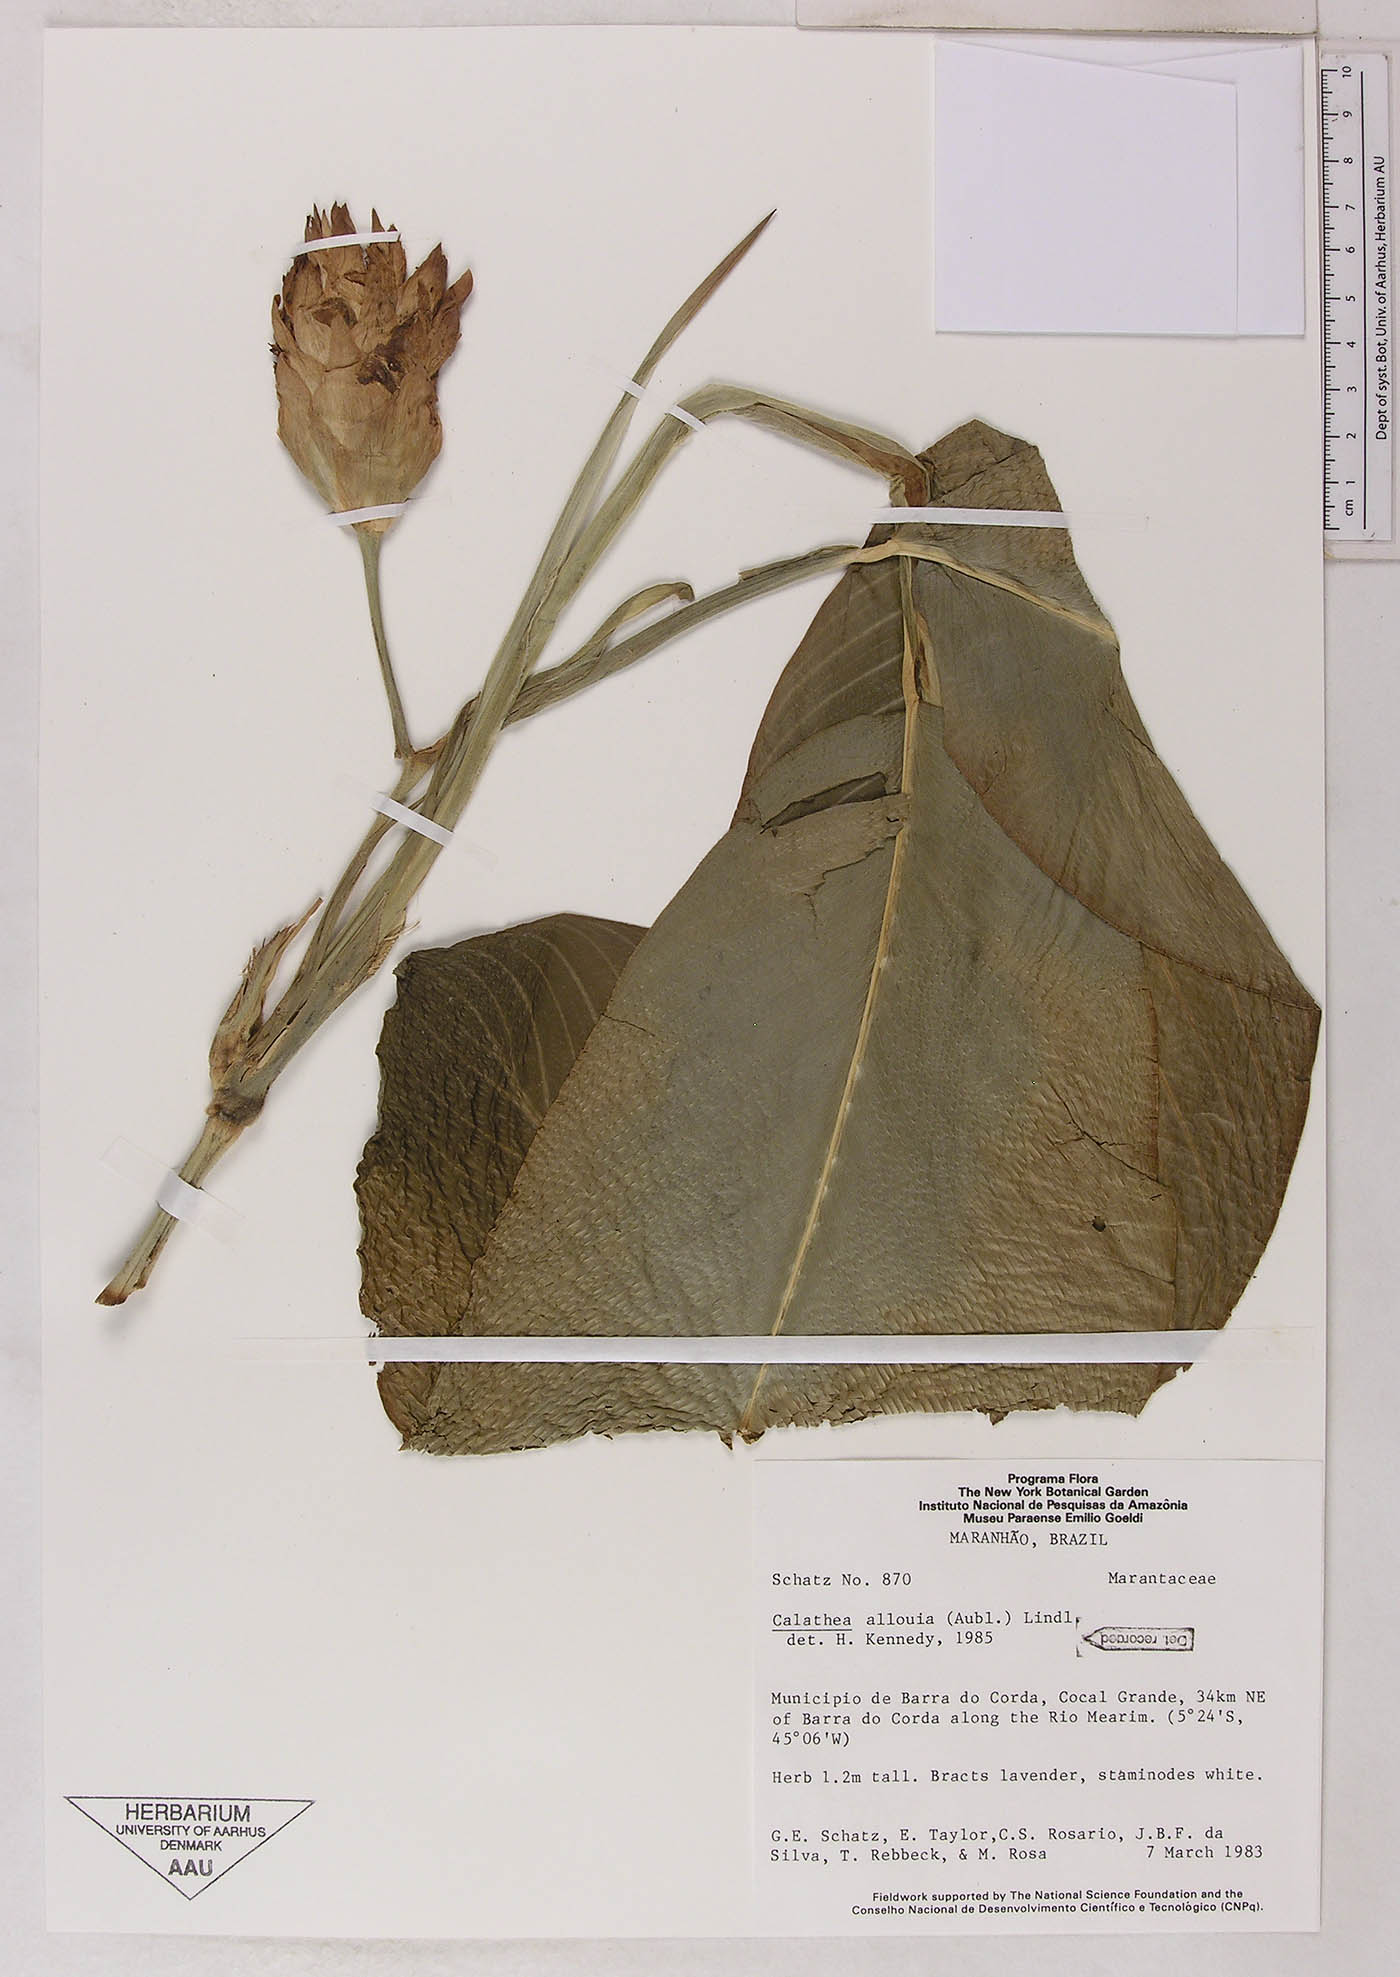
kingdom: Plantae
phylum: Tracheophyta
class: Liliopsida
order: Zingiberales
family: Marantaceae
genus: Goeppertia
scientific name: Goeppertia allouia
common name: Sweet corn-tuber
